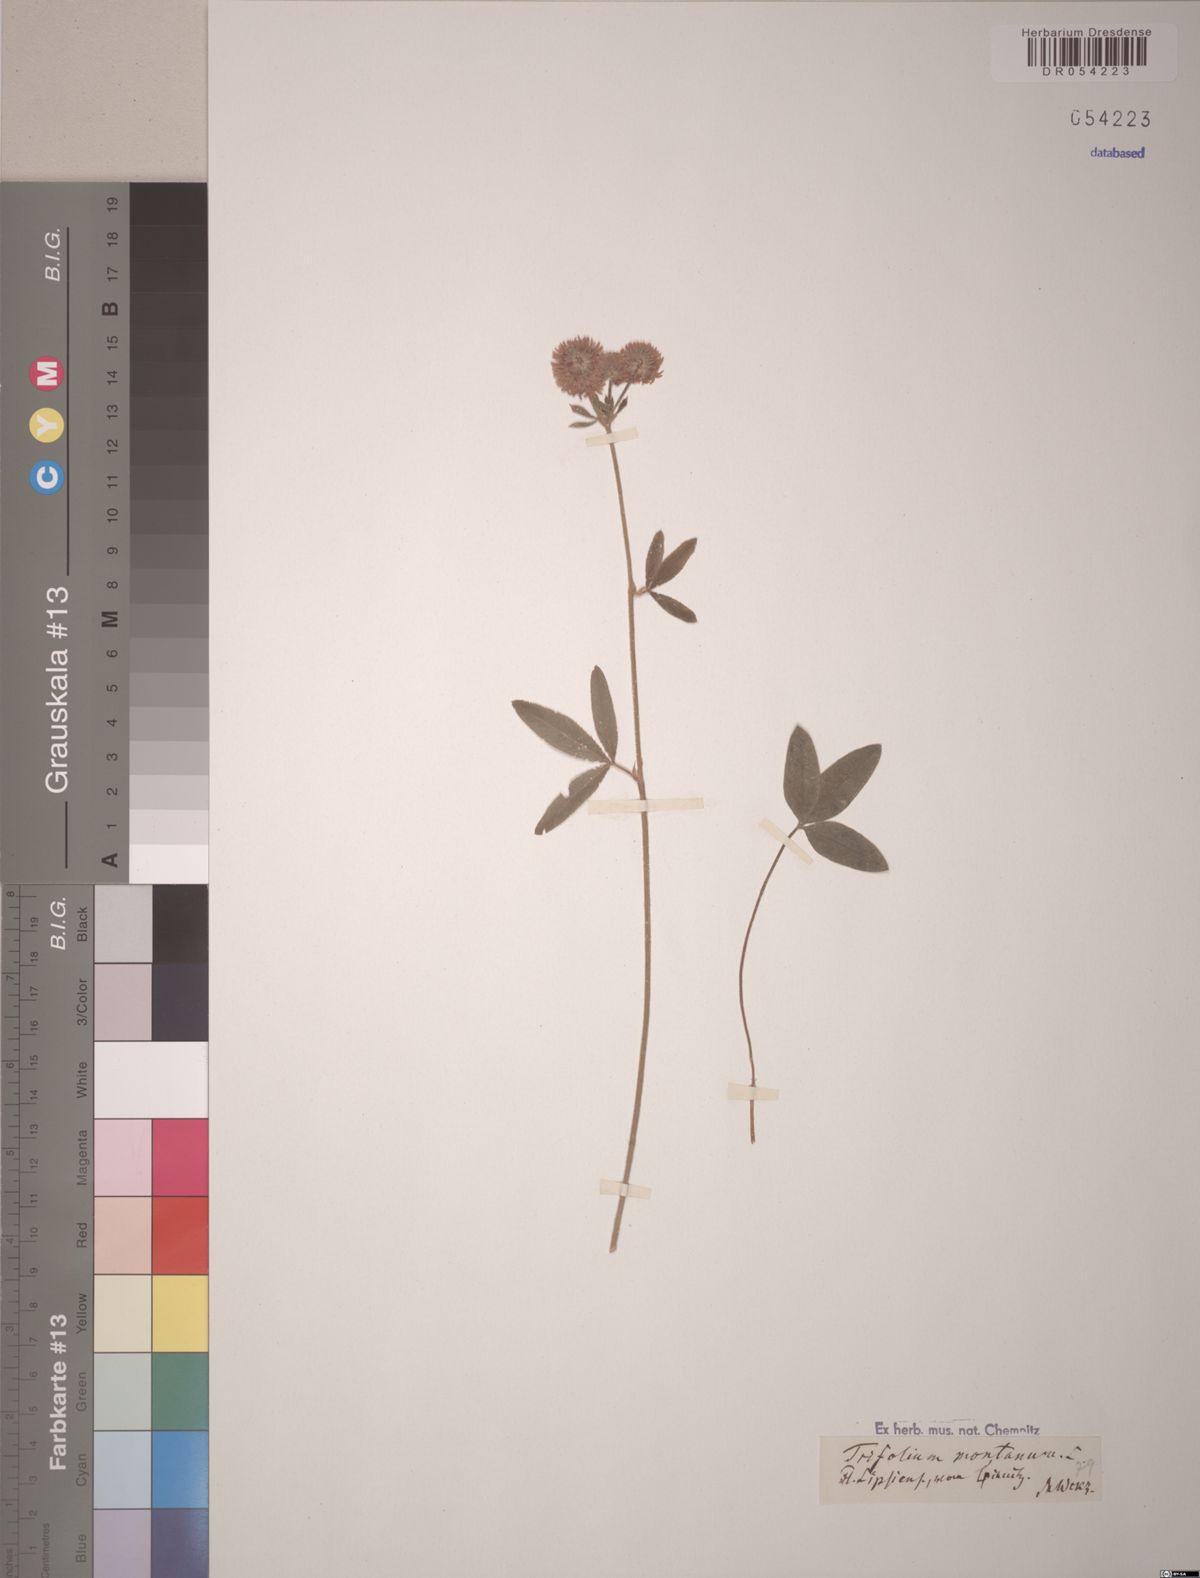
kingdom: Plantae
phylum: Tracheophyta
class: Magnoliopsida
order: Fabales
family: Fabaceae
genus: Trifolium
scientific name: Trifolium montanum
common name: Mountain clover
